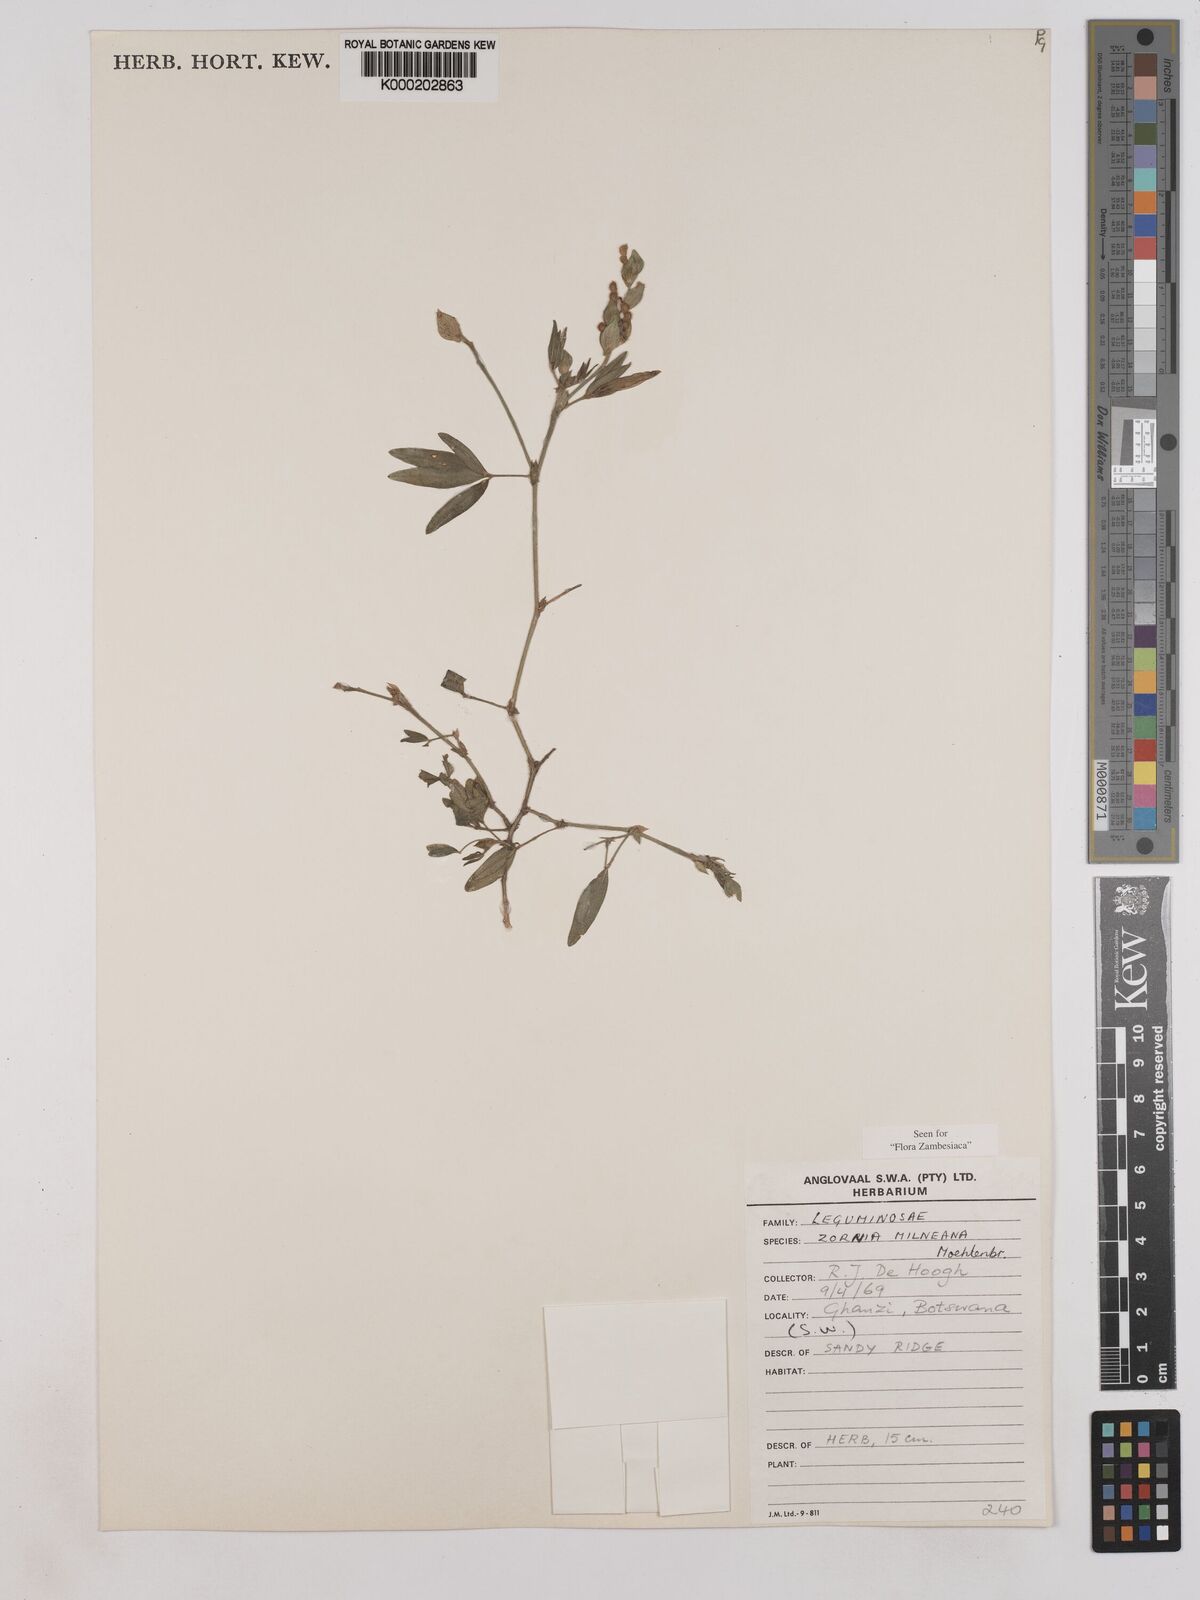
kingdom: Plantae
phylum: Tracheophyta
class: Magnoliopsida
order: Fabales
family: Fabaceae
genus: Zornia
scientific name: Zornia milneana
